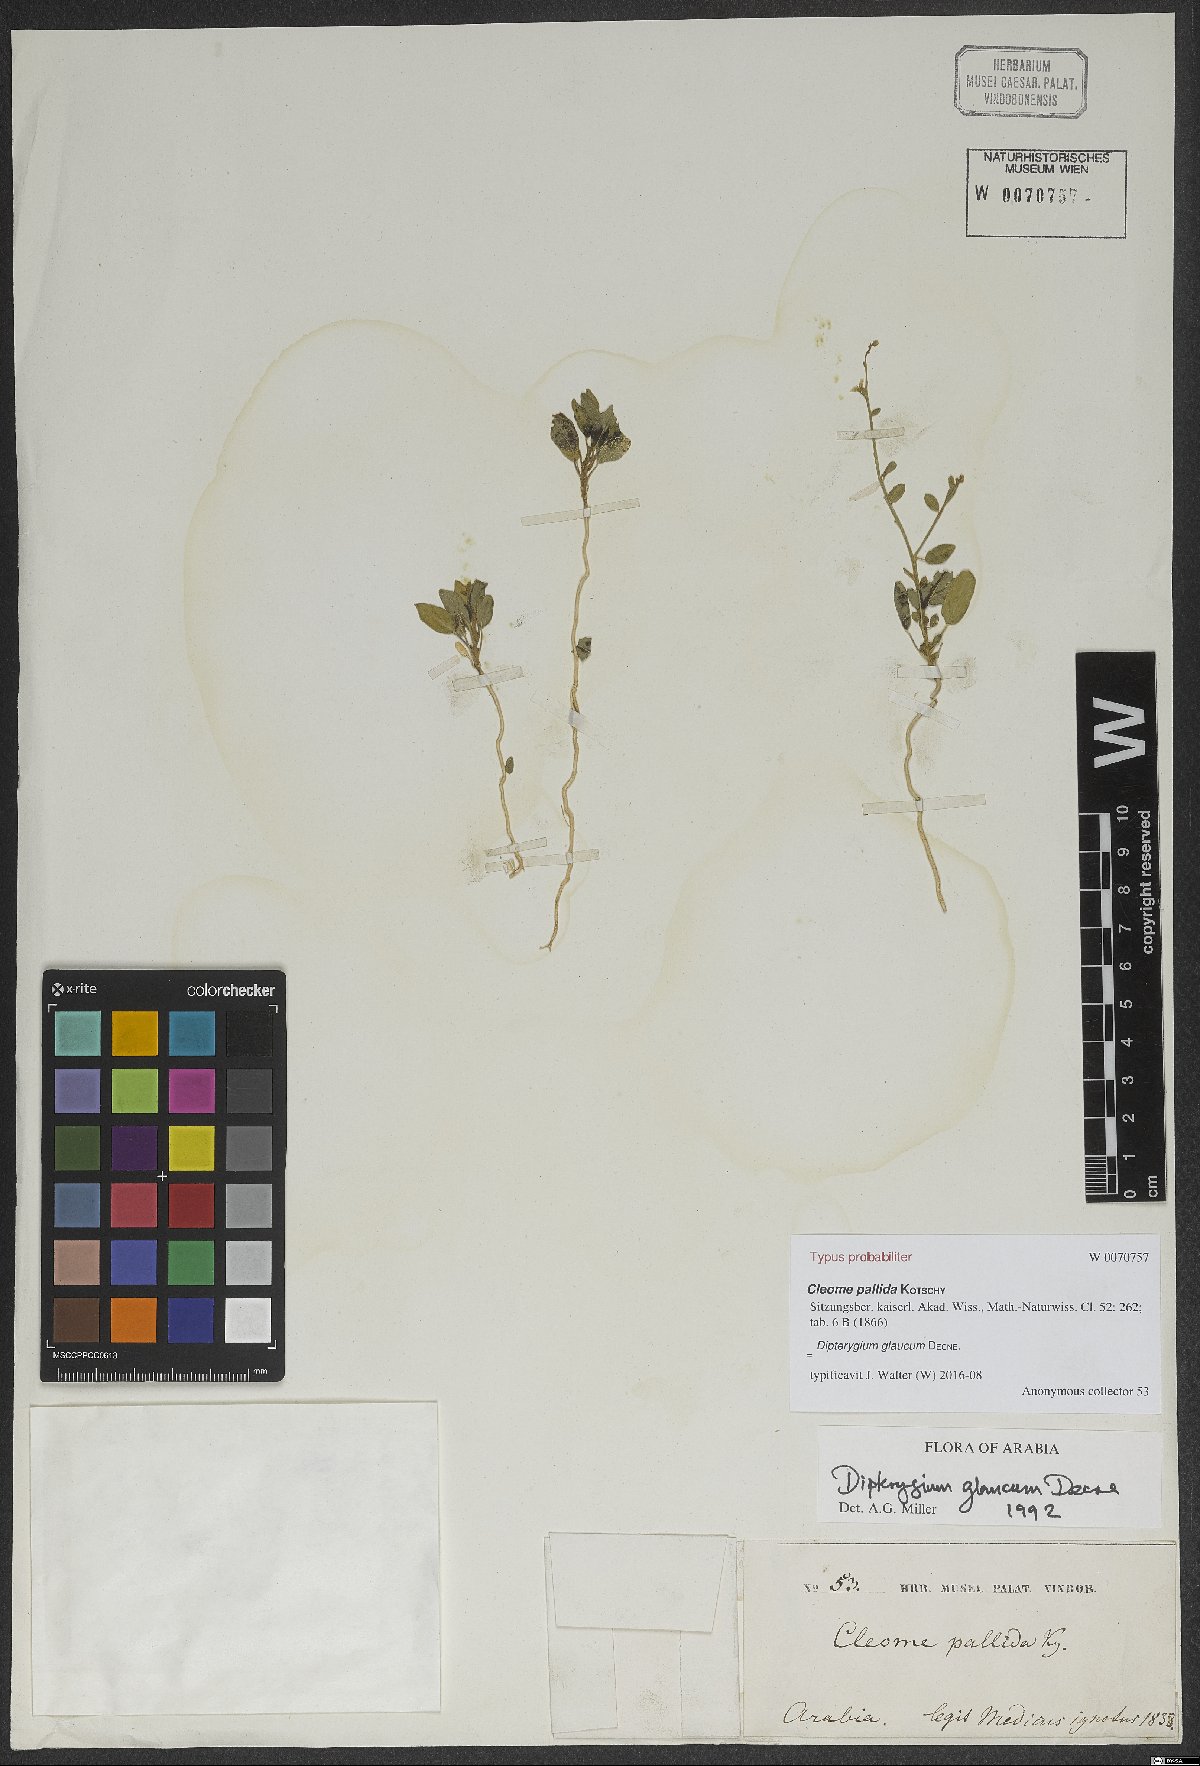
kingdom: Plantae
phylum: Tracheophyta
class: Magnoliopsida
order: Brassicales
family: Cleomaceae
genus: Dipterygium
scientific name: Dipterygium glaucum
